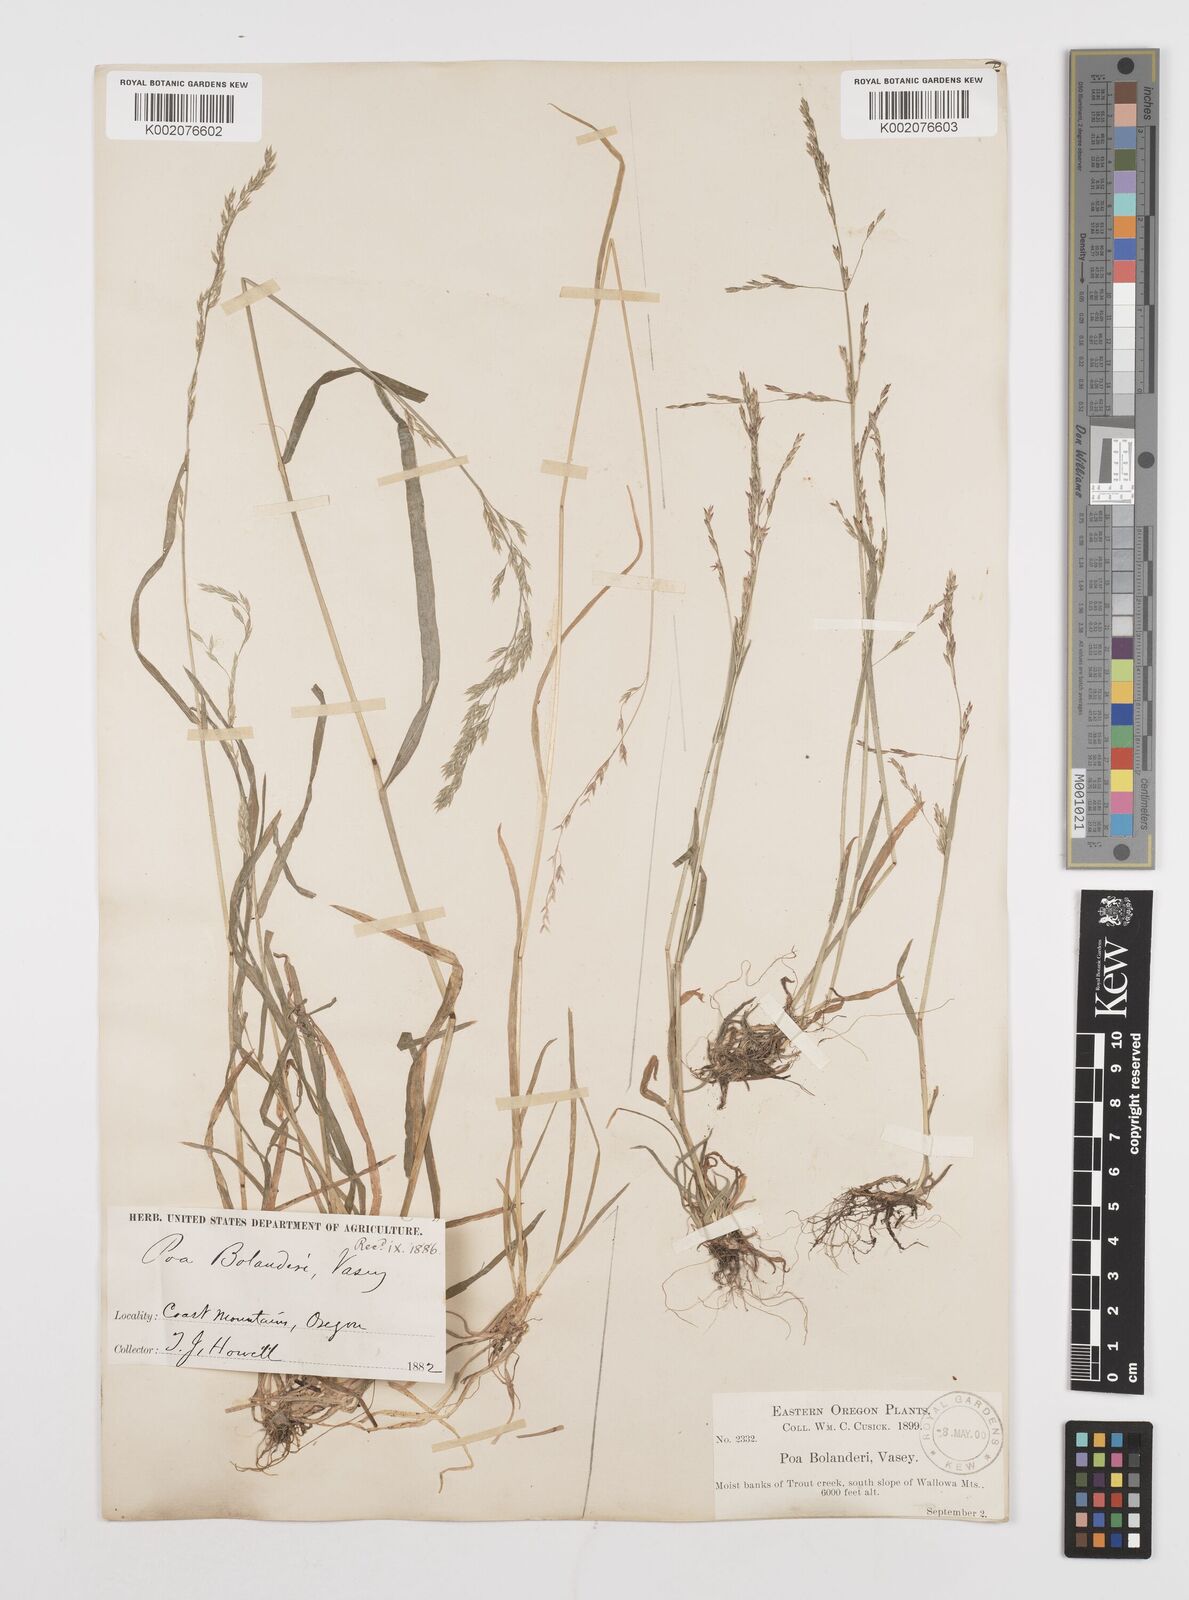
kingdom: Plantae
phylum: Tracheophyta
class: Liliopsida
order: Poales
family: Poaceae
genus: Poa
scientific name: Poa bolanderi
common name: Bolander's bluegrass
